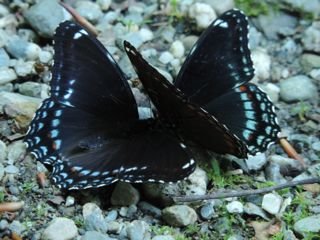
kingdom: Animalia
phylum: Arthropoda
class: Insecta
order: Lepidoptera
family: Nymphalidae
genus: Limenitis
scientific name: Limenitis astyanax
